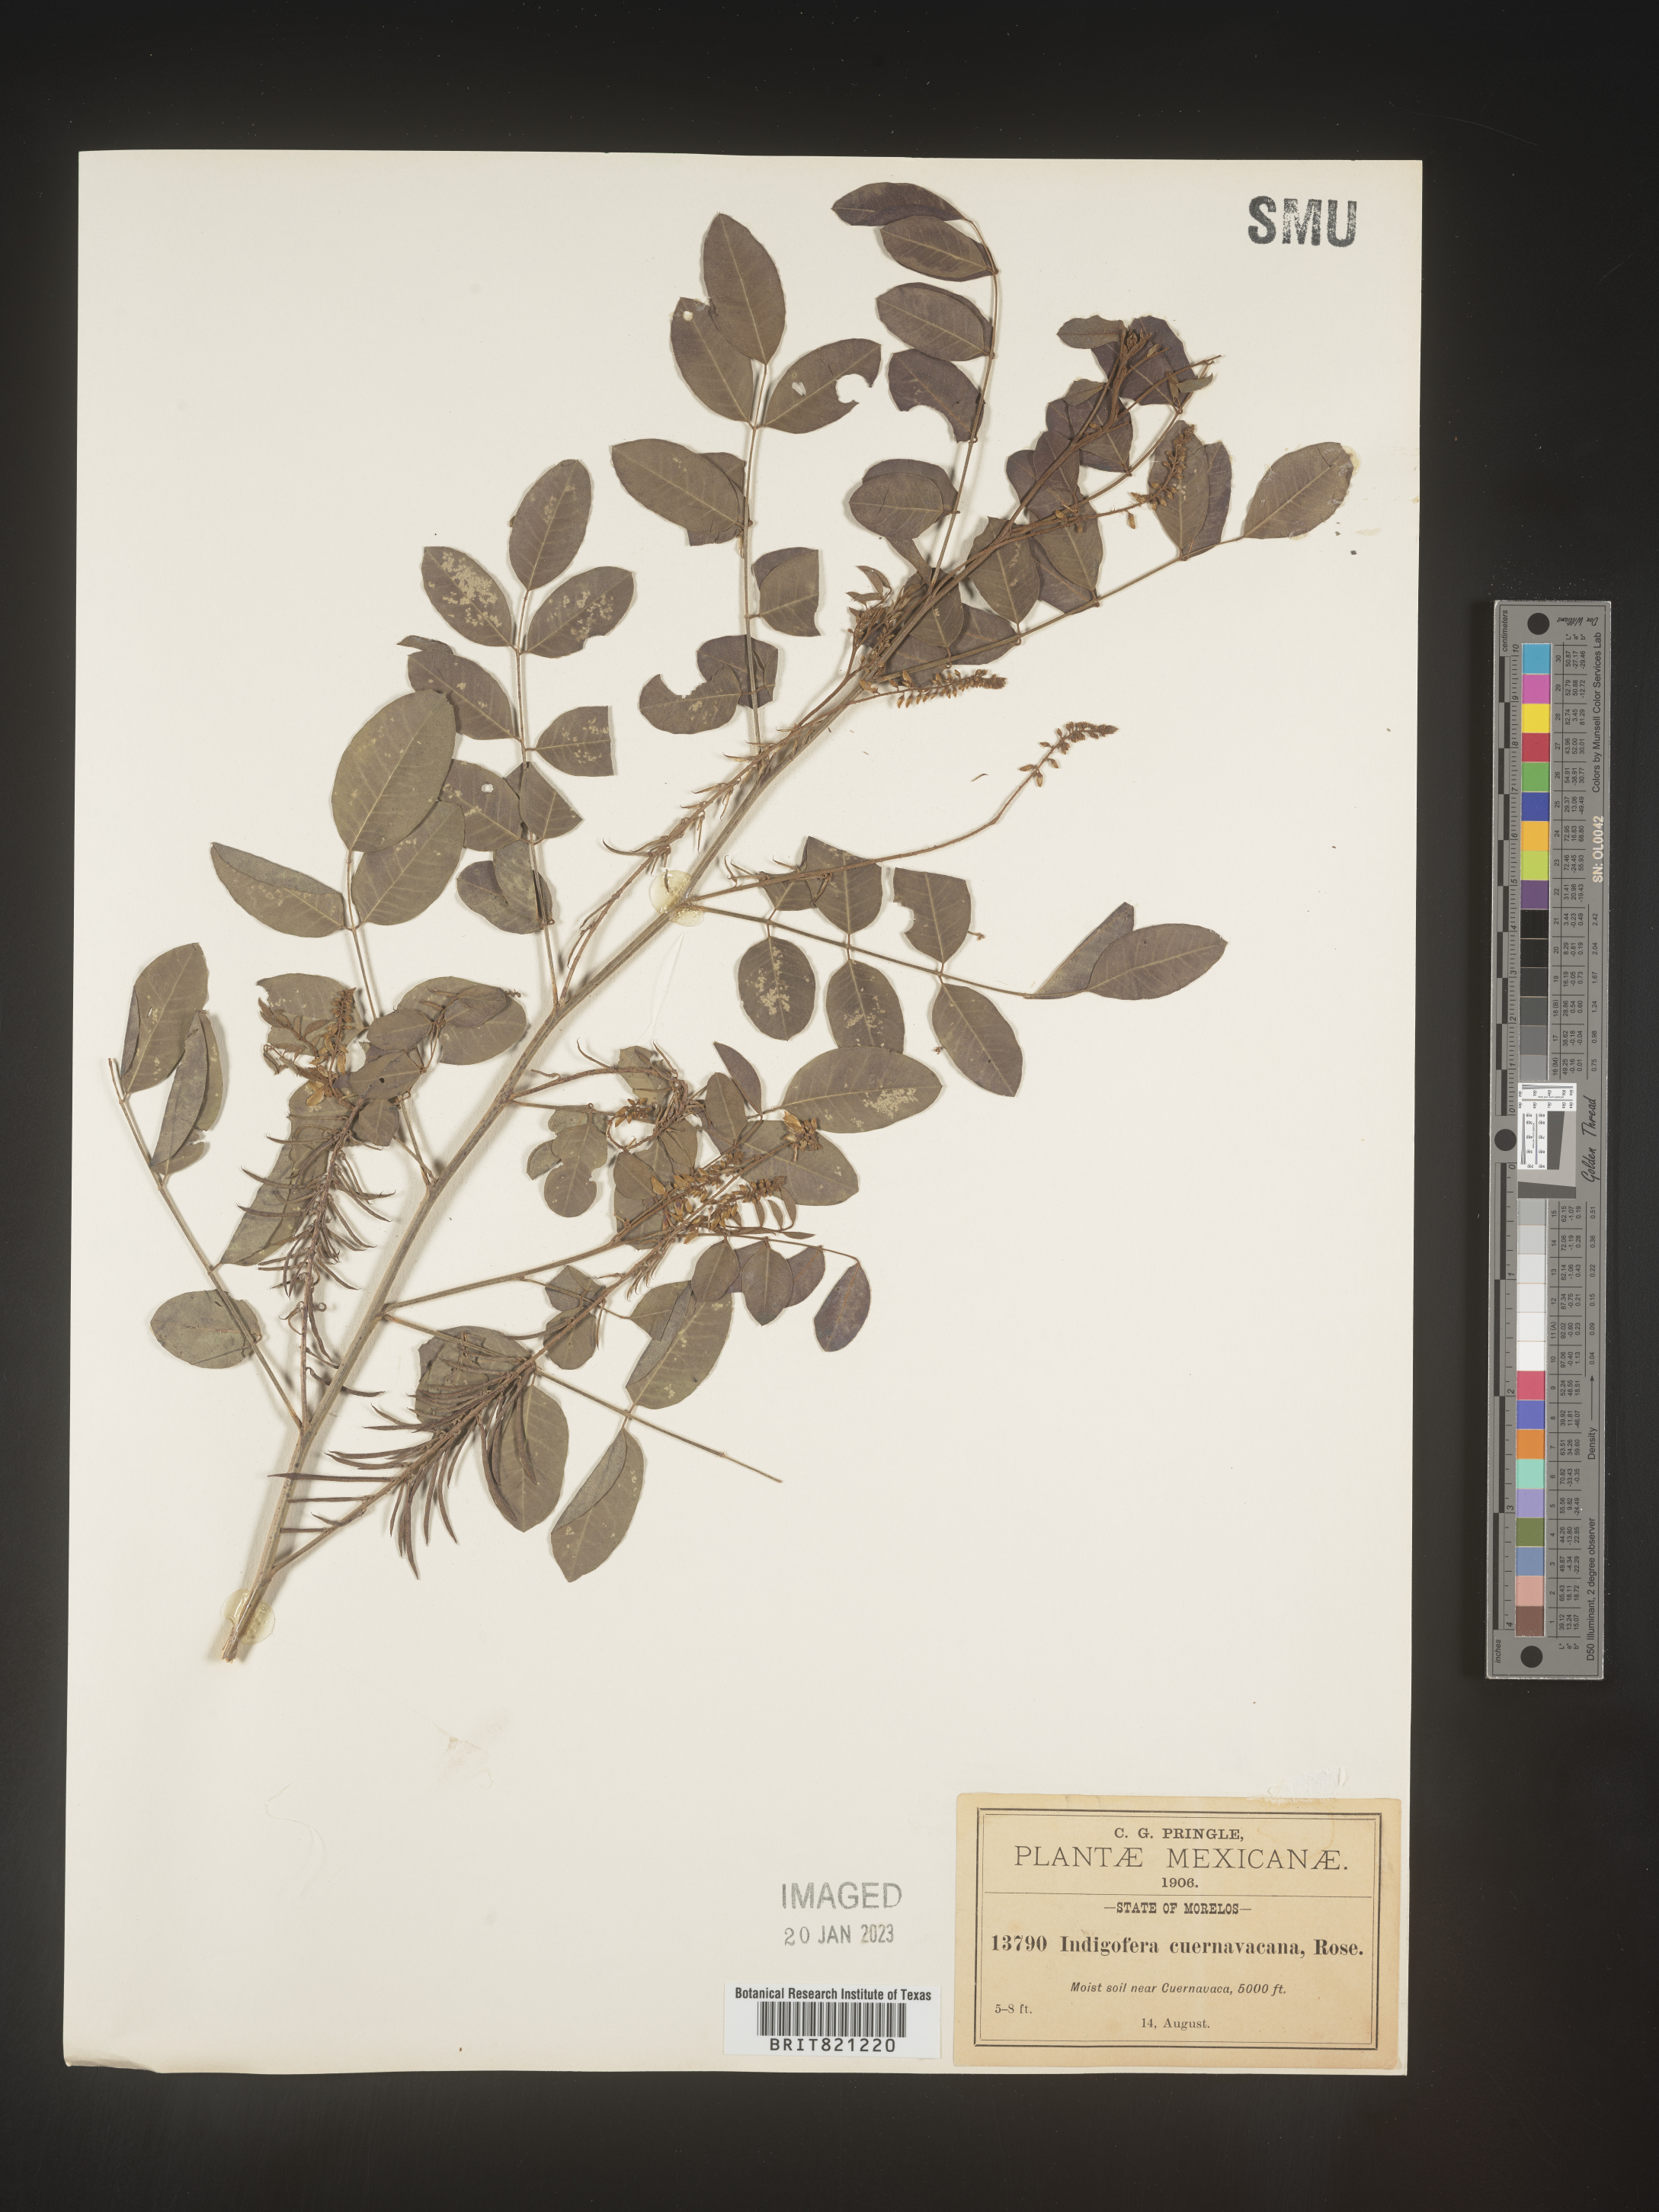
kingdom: Plantae
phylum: Tracheophyta
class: Magnoliopsida
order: Fabales
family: Fabaceae
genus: Indigofera
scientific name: Indigofera
